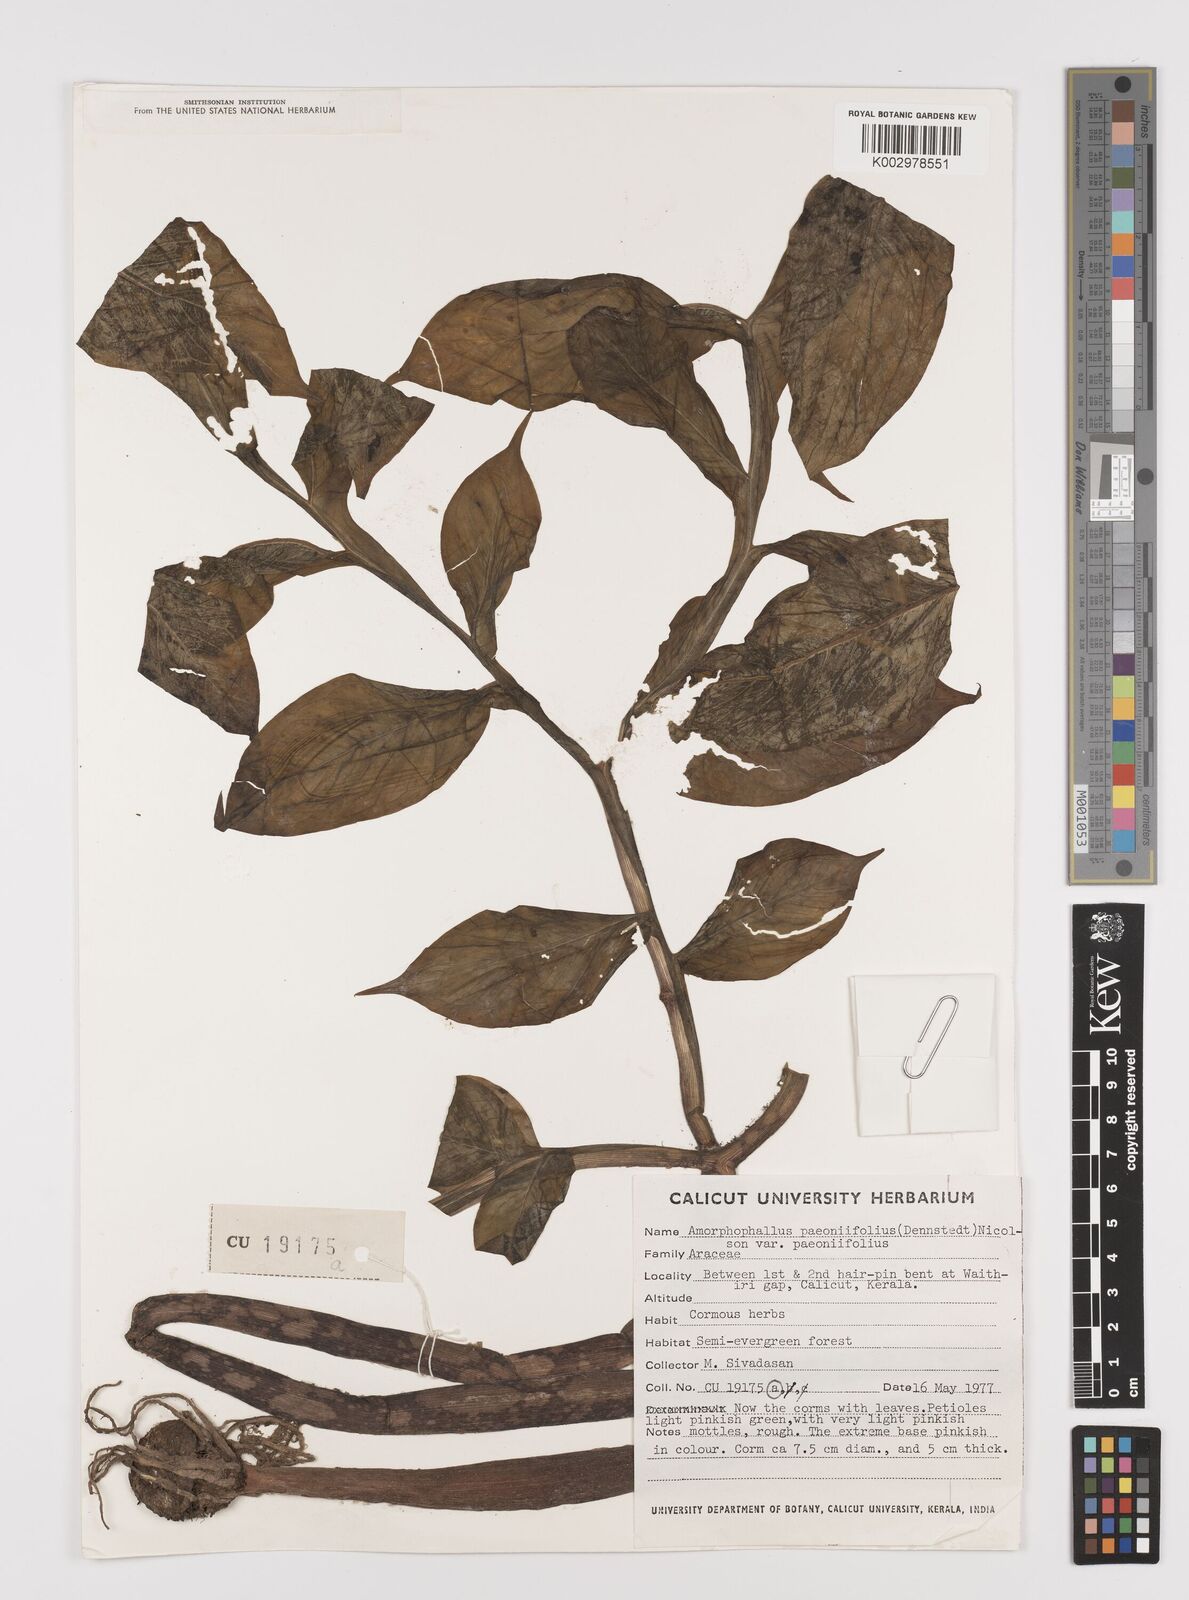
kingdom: Plantae
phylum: Tracheophyta
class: Liliopsida
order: Alismatales
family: Araceae
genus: Amorphophallus
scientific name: Amorphophallus paeoniifolius
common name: Telinga-potato
